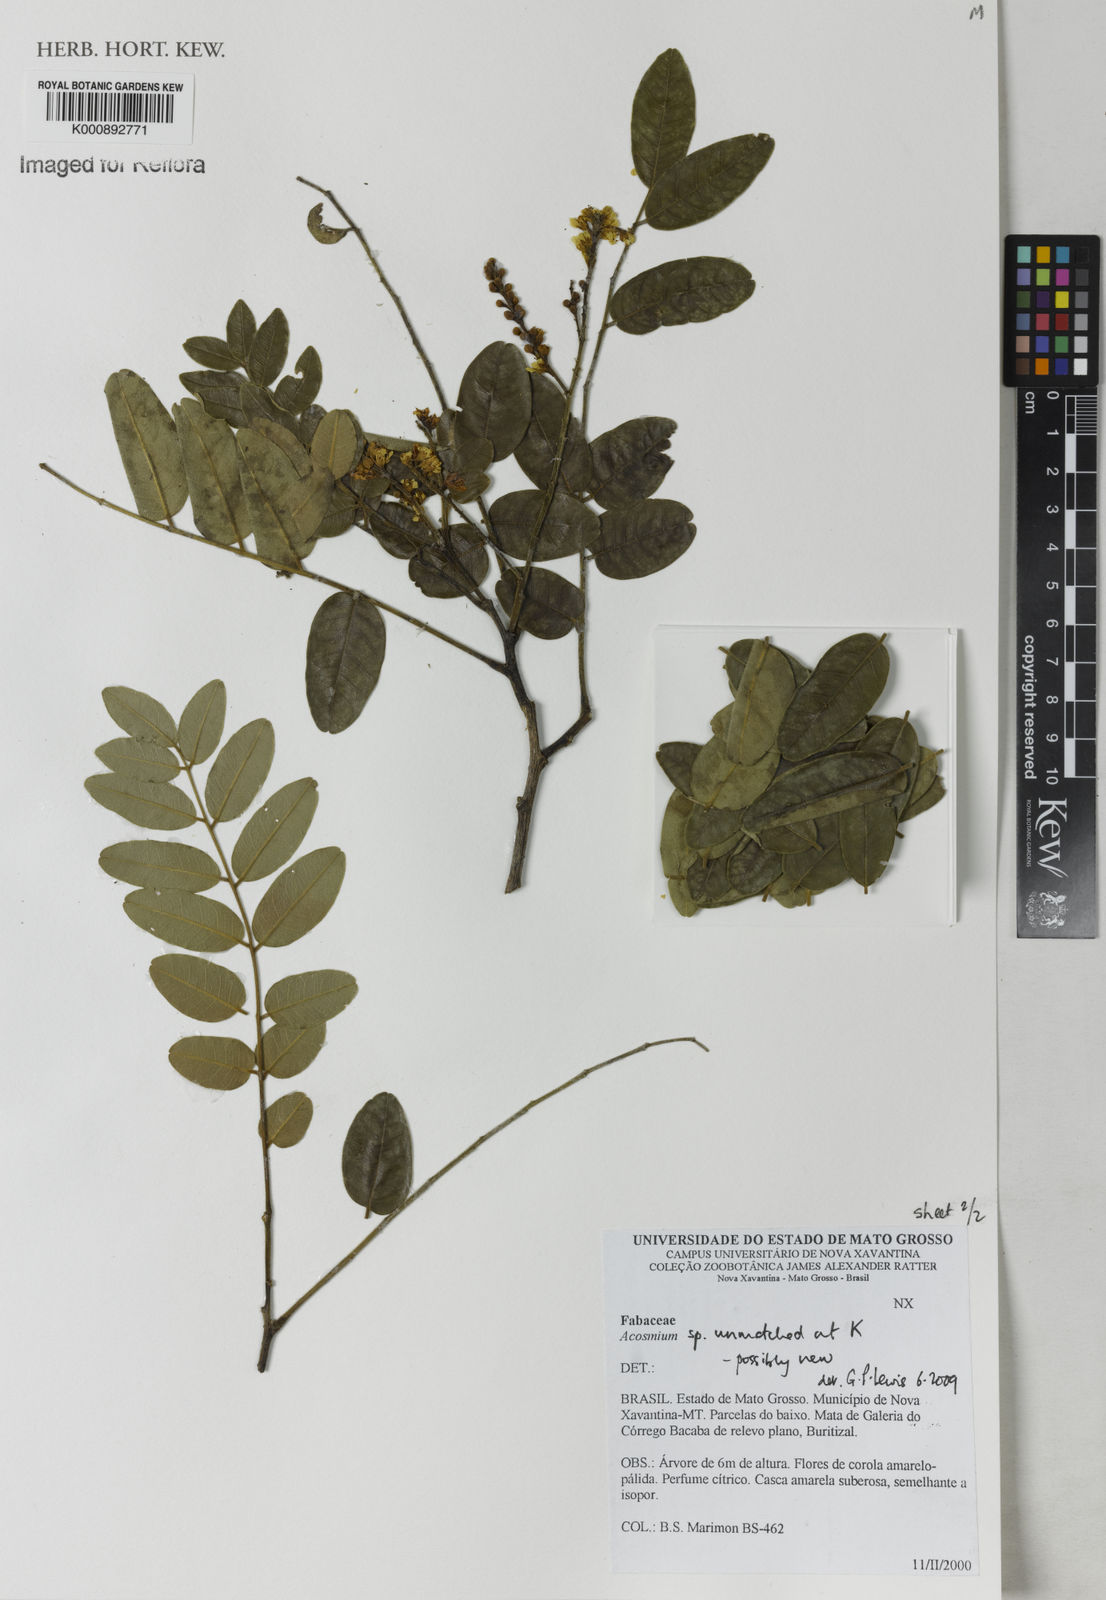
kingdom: Plantae
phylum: Tracheophyta
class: Magnoliopsida
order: Fabales
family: Fabaceae
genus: Leptolobium
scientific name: Leptolobium
